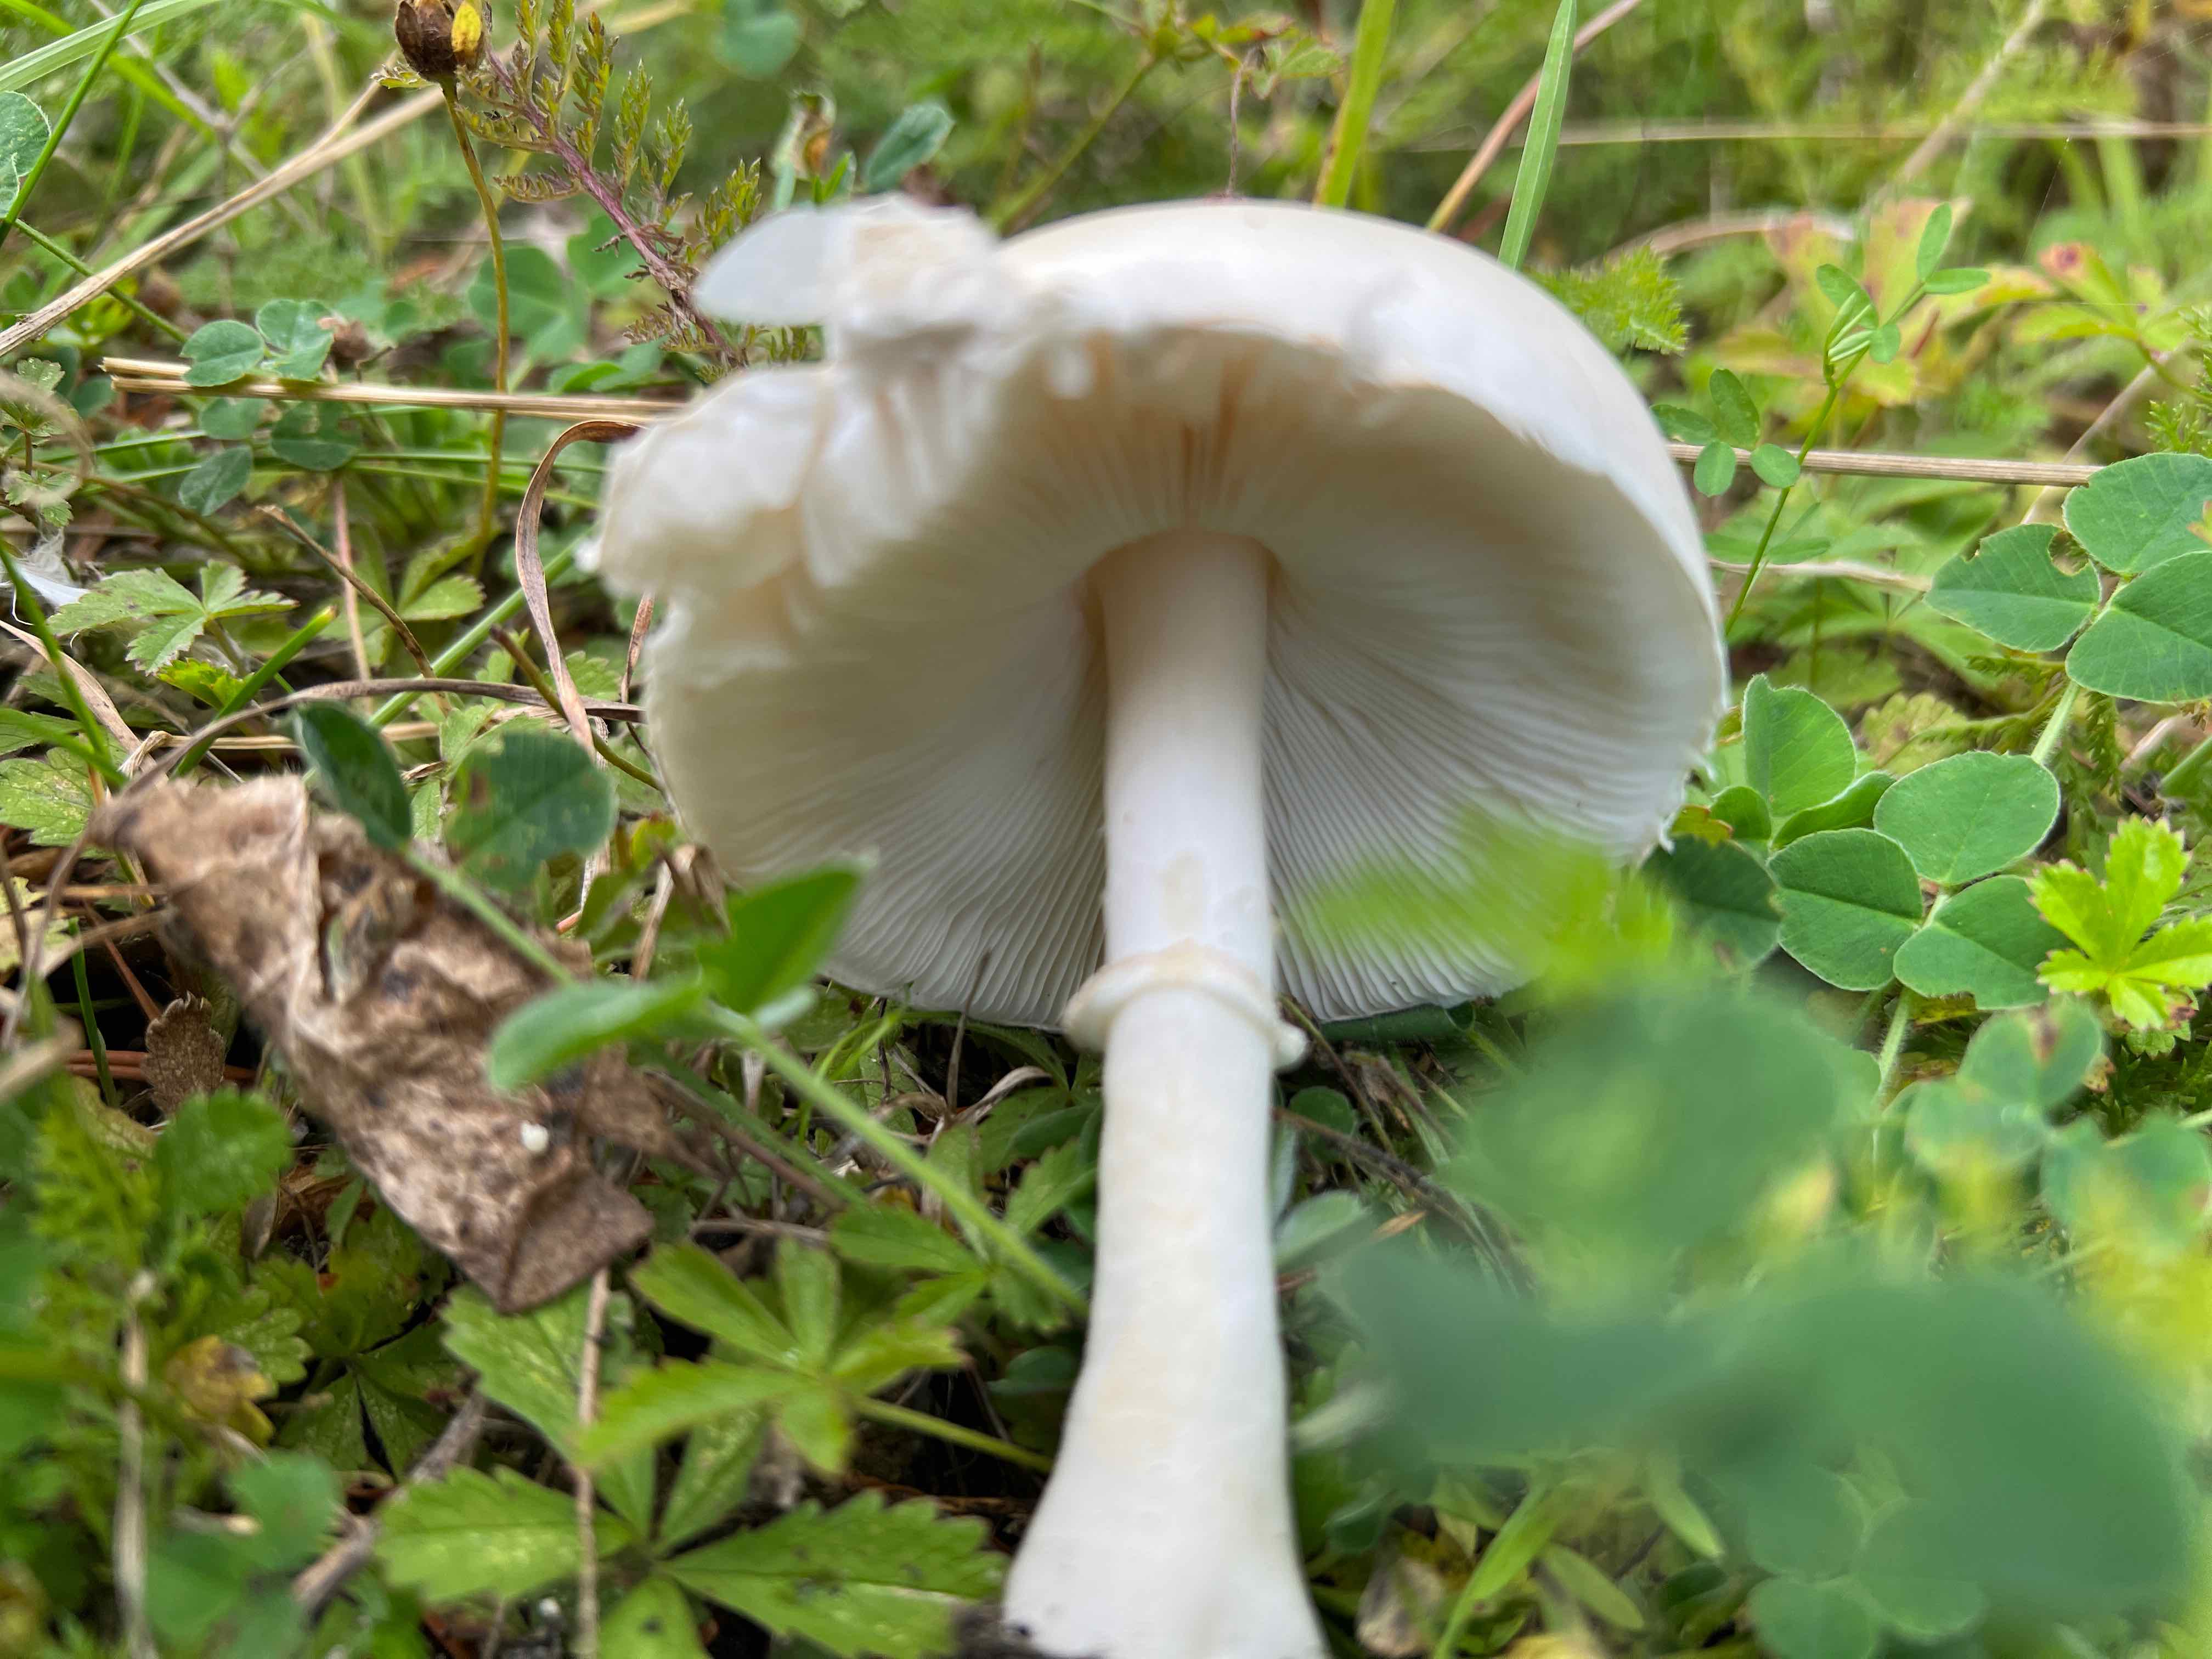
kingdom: Fungi
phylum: Basidiomycota
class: Agaricomycetes
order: Agaricales
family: Agaricaceae
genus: Leucoagaricus
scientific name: Leucoagaricus leucothites
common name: rosabladet silkehat
